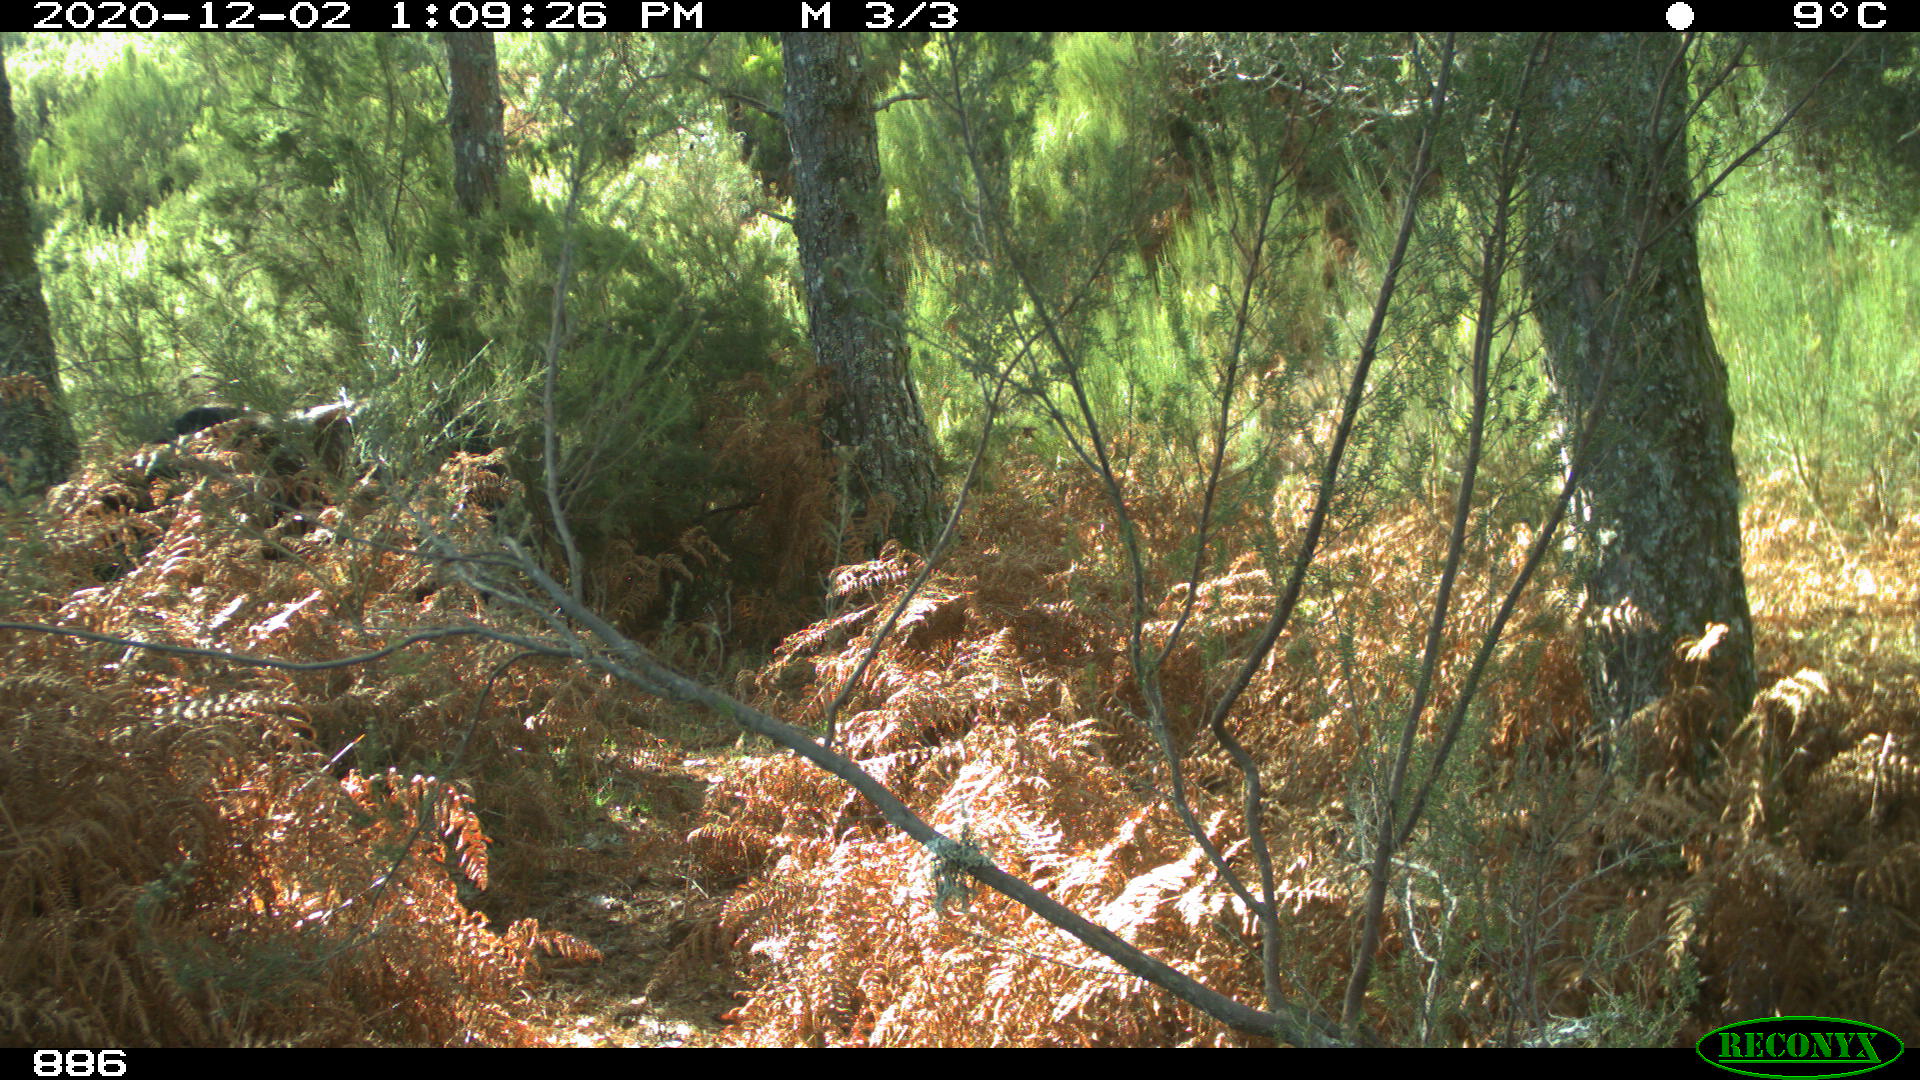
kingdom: Animalia
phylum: Chordata
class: Mammalia
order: Perissodactyla
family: Equidae
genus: Equus
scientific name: Equus caballus
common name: Horse
